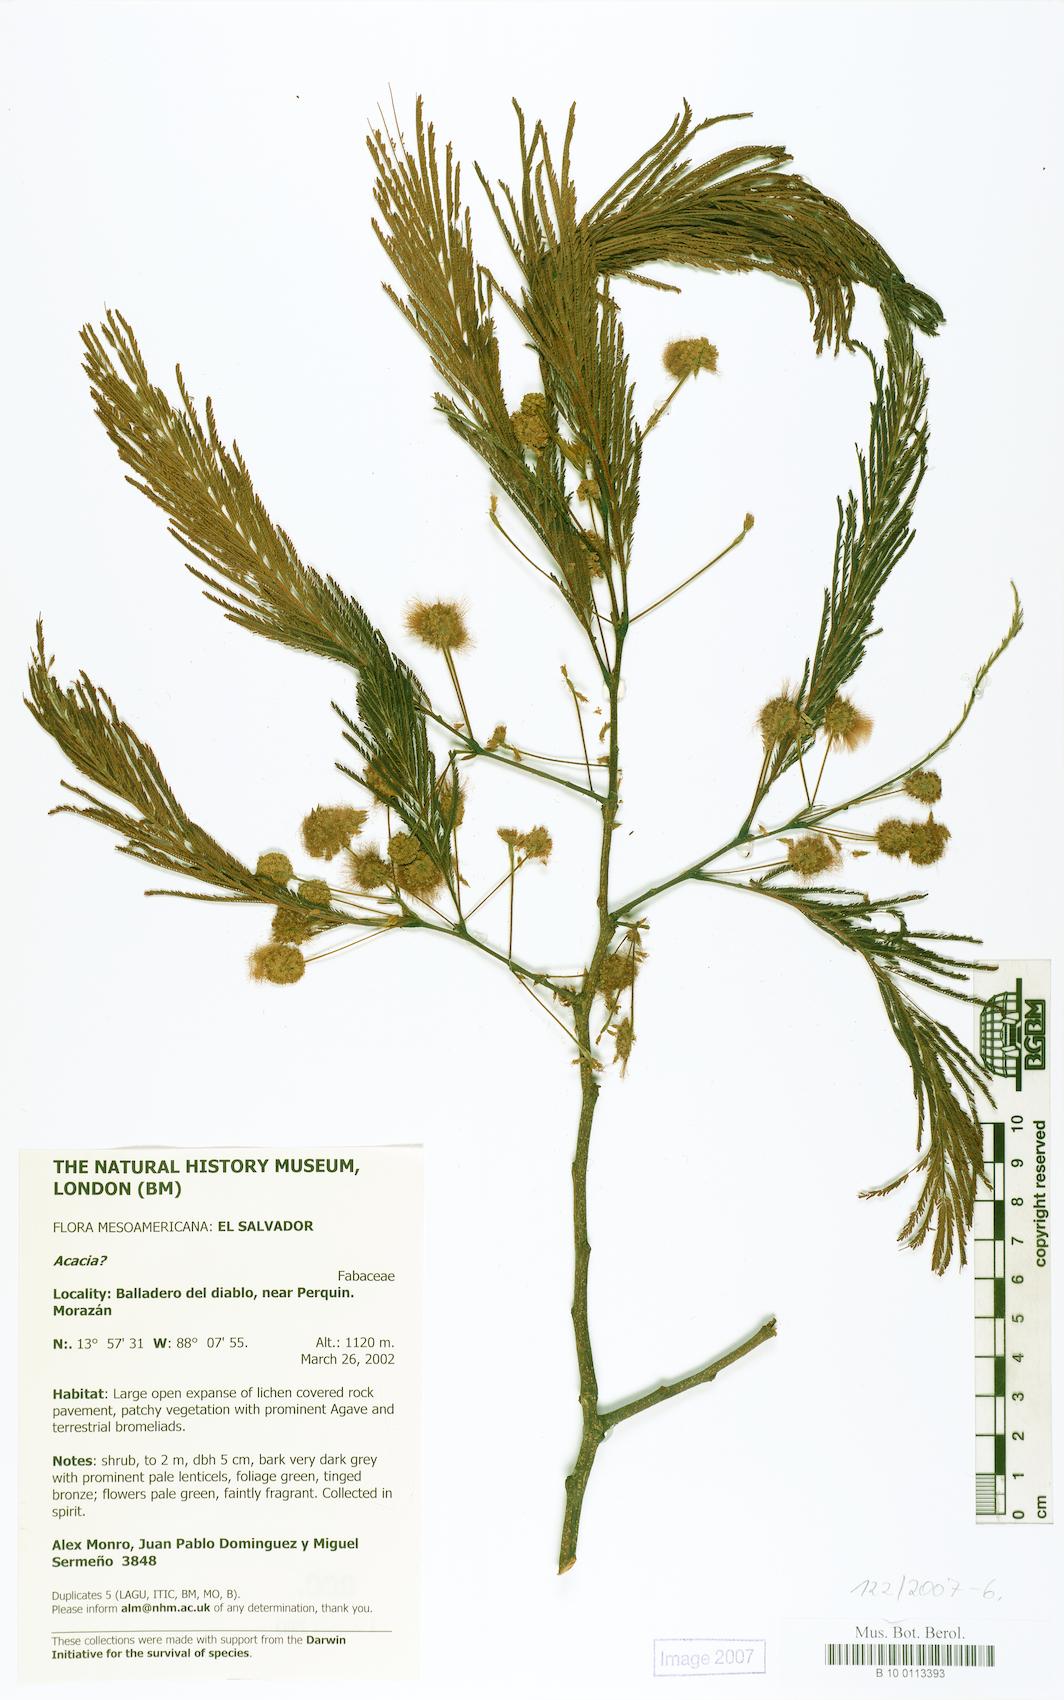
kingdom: Plantae
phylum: Tracheophyta
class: Magnoliopsida
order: Fabales
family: Fabaceae
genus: Lysiloma
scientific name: Lysiloma divaricatum
